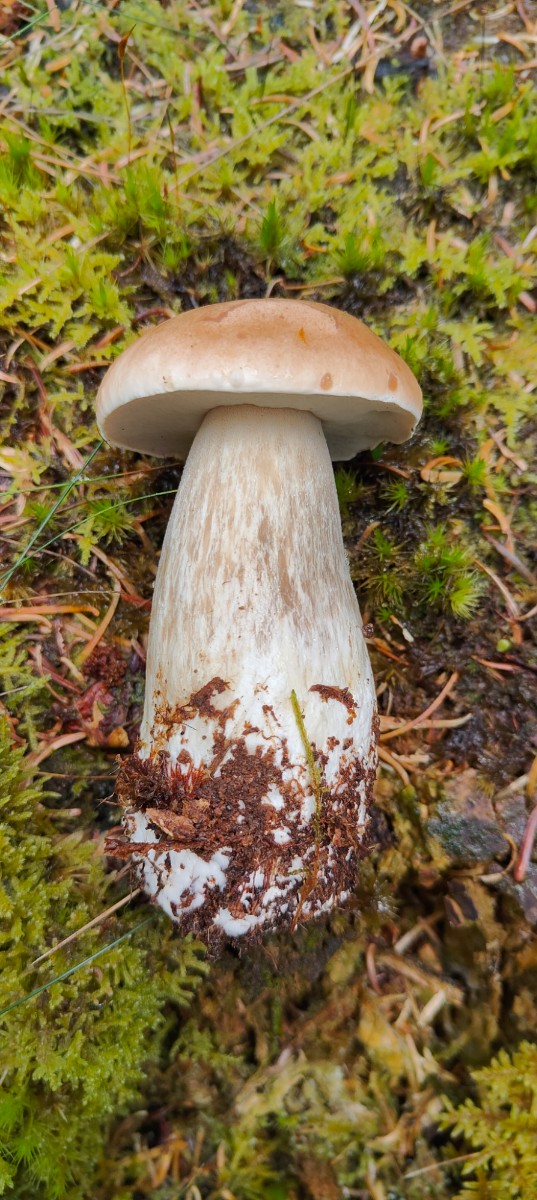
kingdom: Fungi
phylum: Basidiomycota
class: Agaricomycetes
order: Boletales
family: Boletaceae
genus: Boletus
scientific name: Boletus edulis
